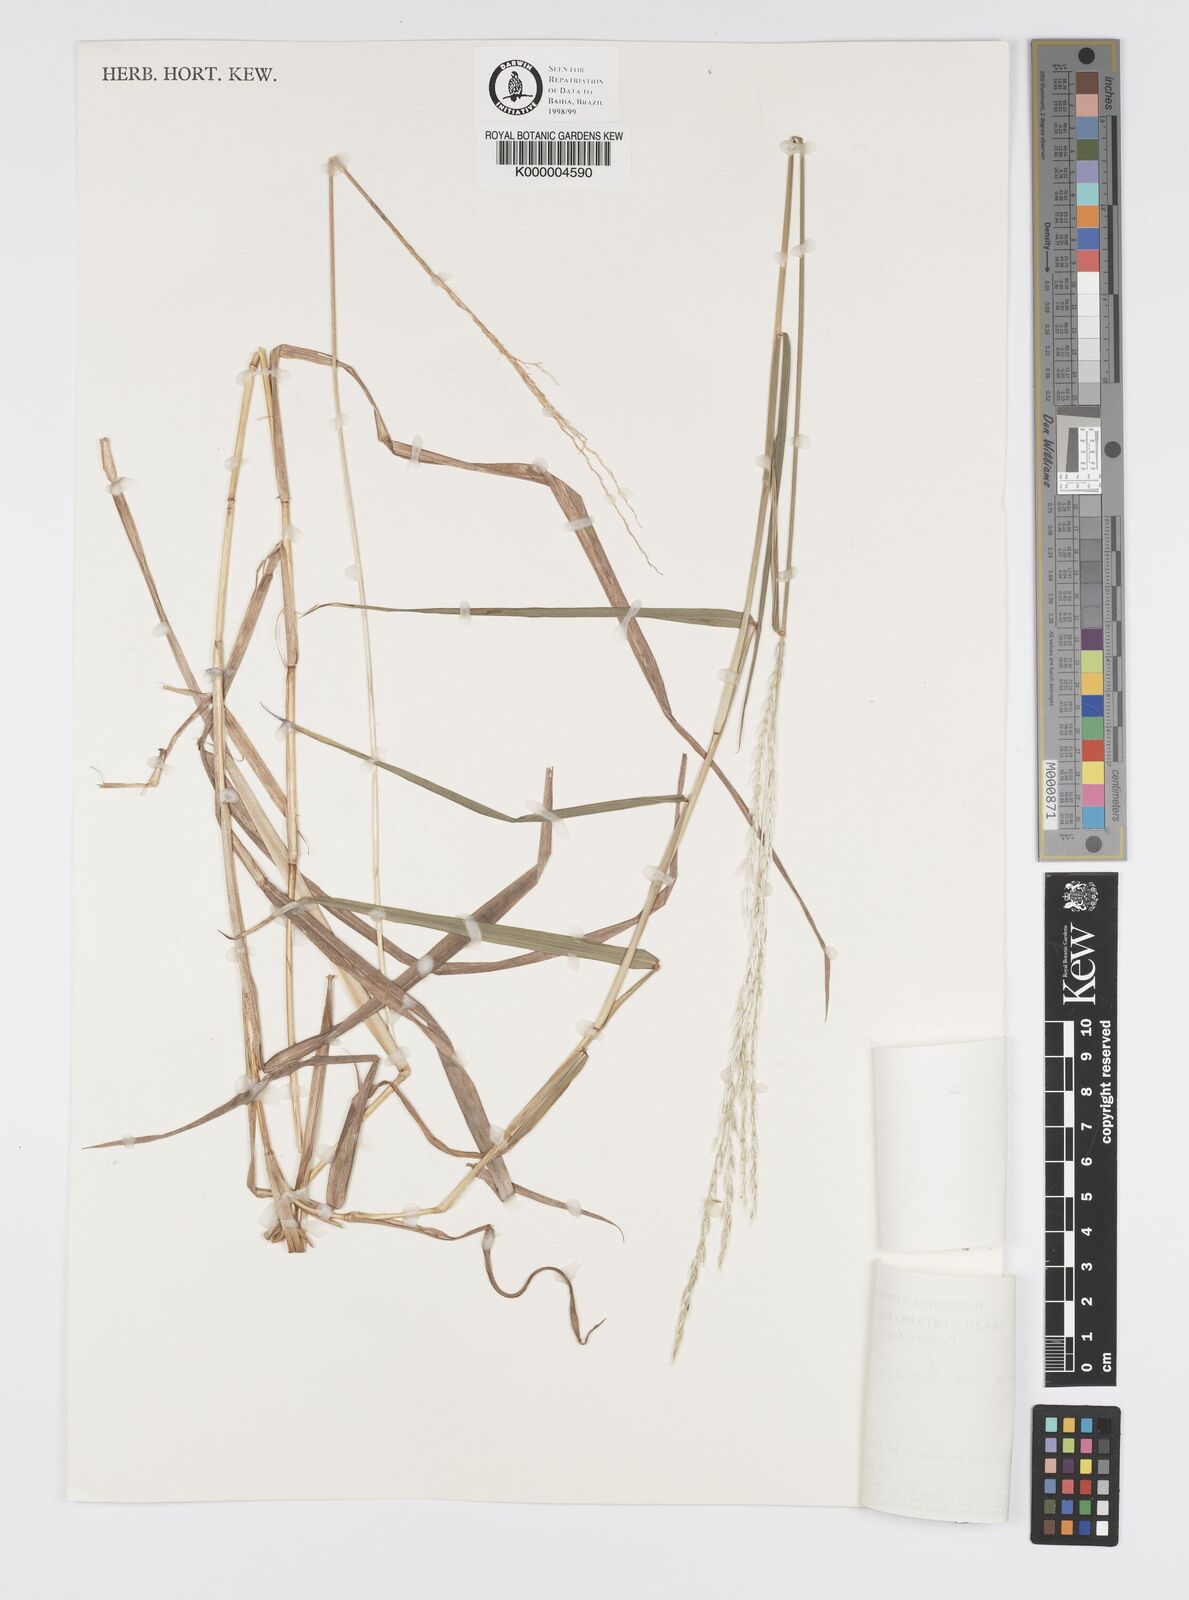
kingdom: Plantae
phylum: Tracheophyta
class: Liliopsida
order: Poales
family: Poaceae
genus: Digitaria
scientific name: Digitaria
